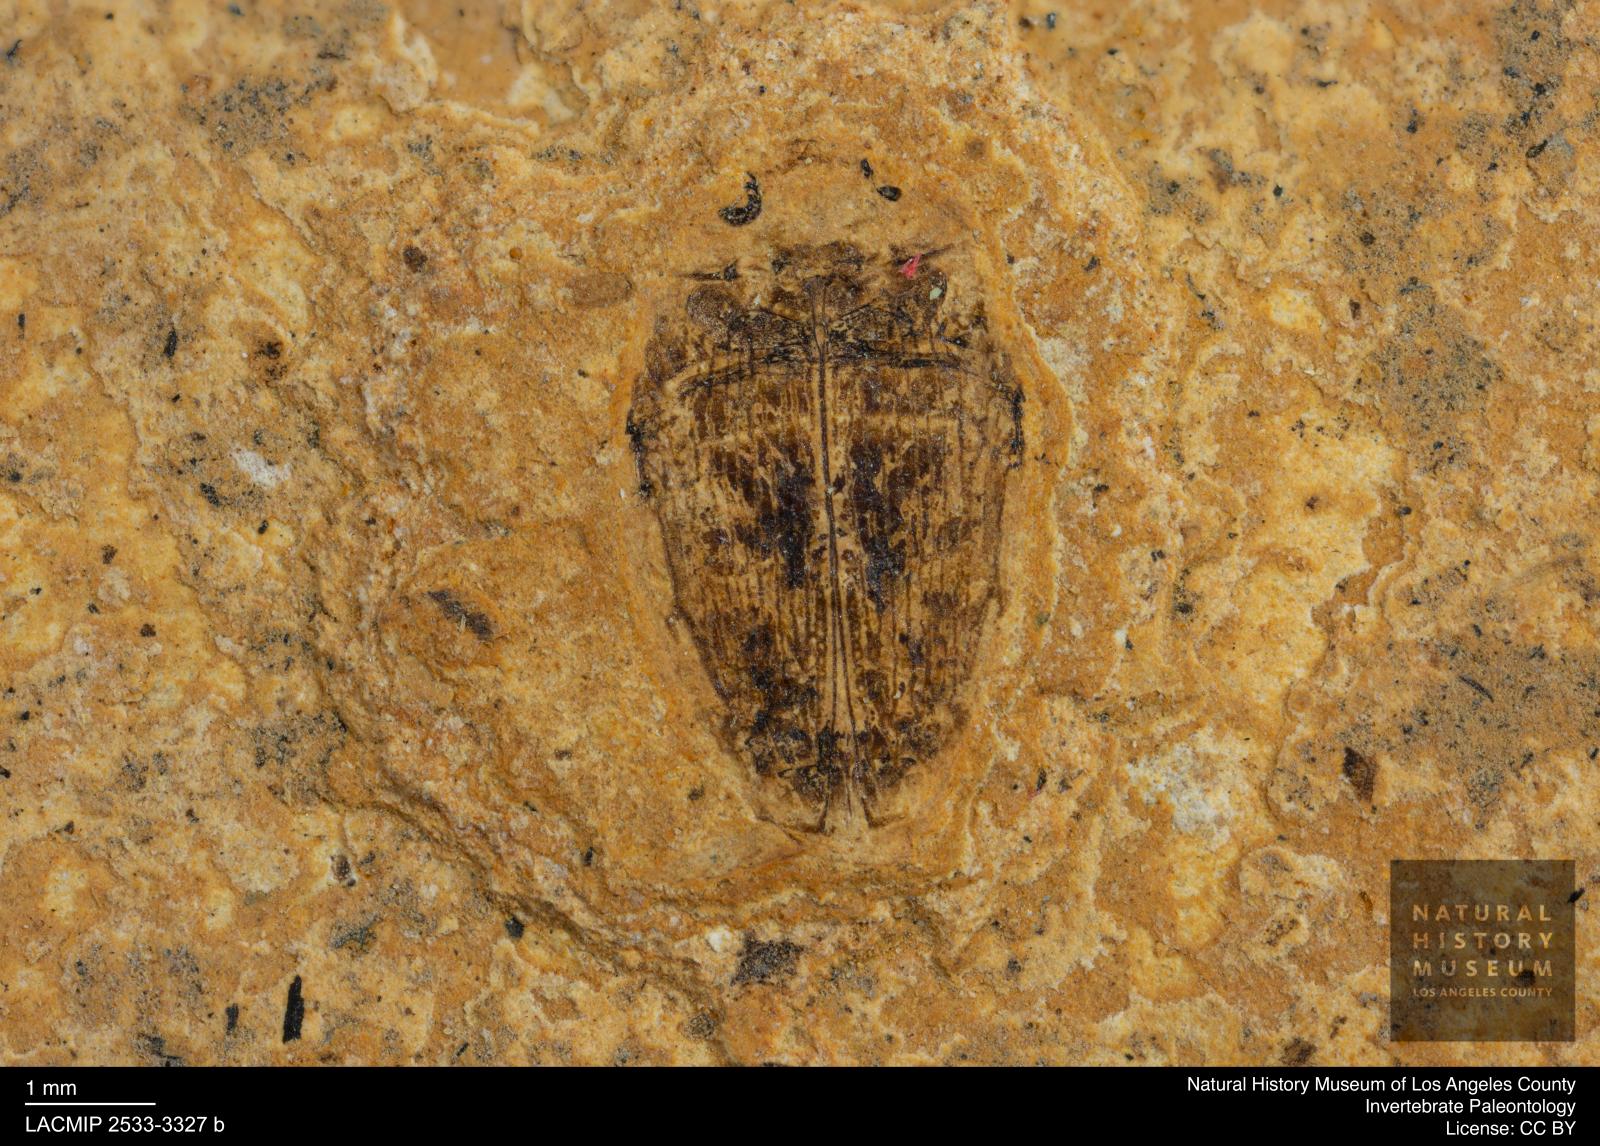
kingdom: Animalia
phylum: Arthropoda
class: Insecta
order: Coleoptera
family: Dytiscidae
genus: Laccophilus
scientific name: Laccophilus Palaeogyrinus strigatus
